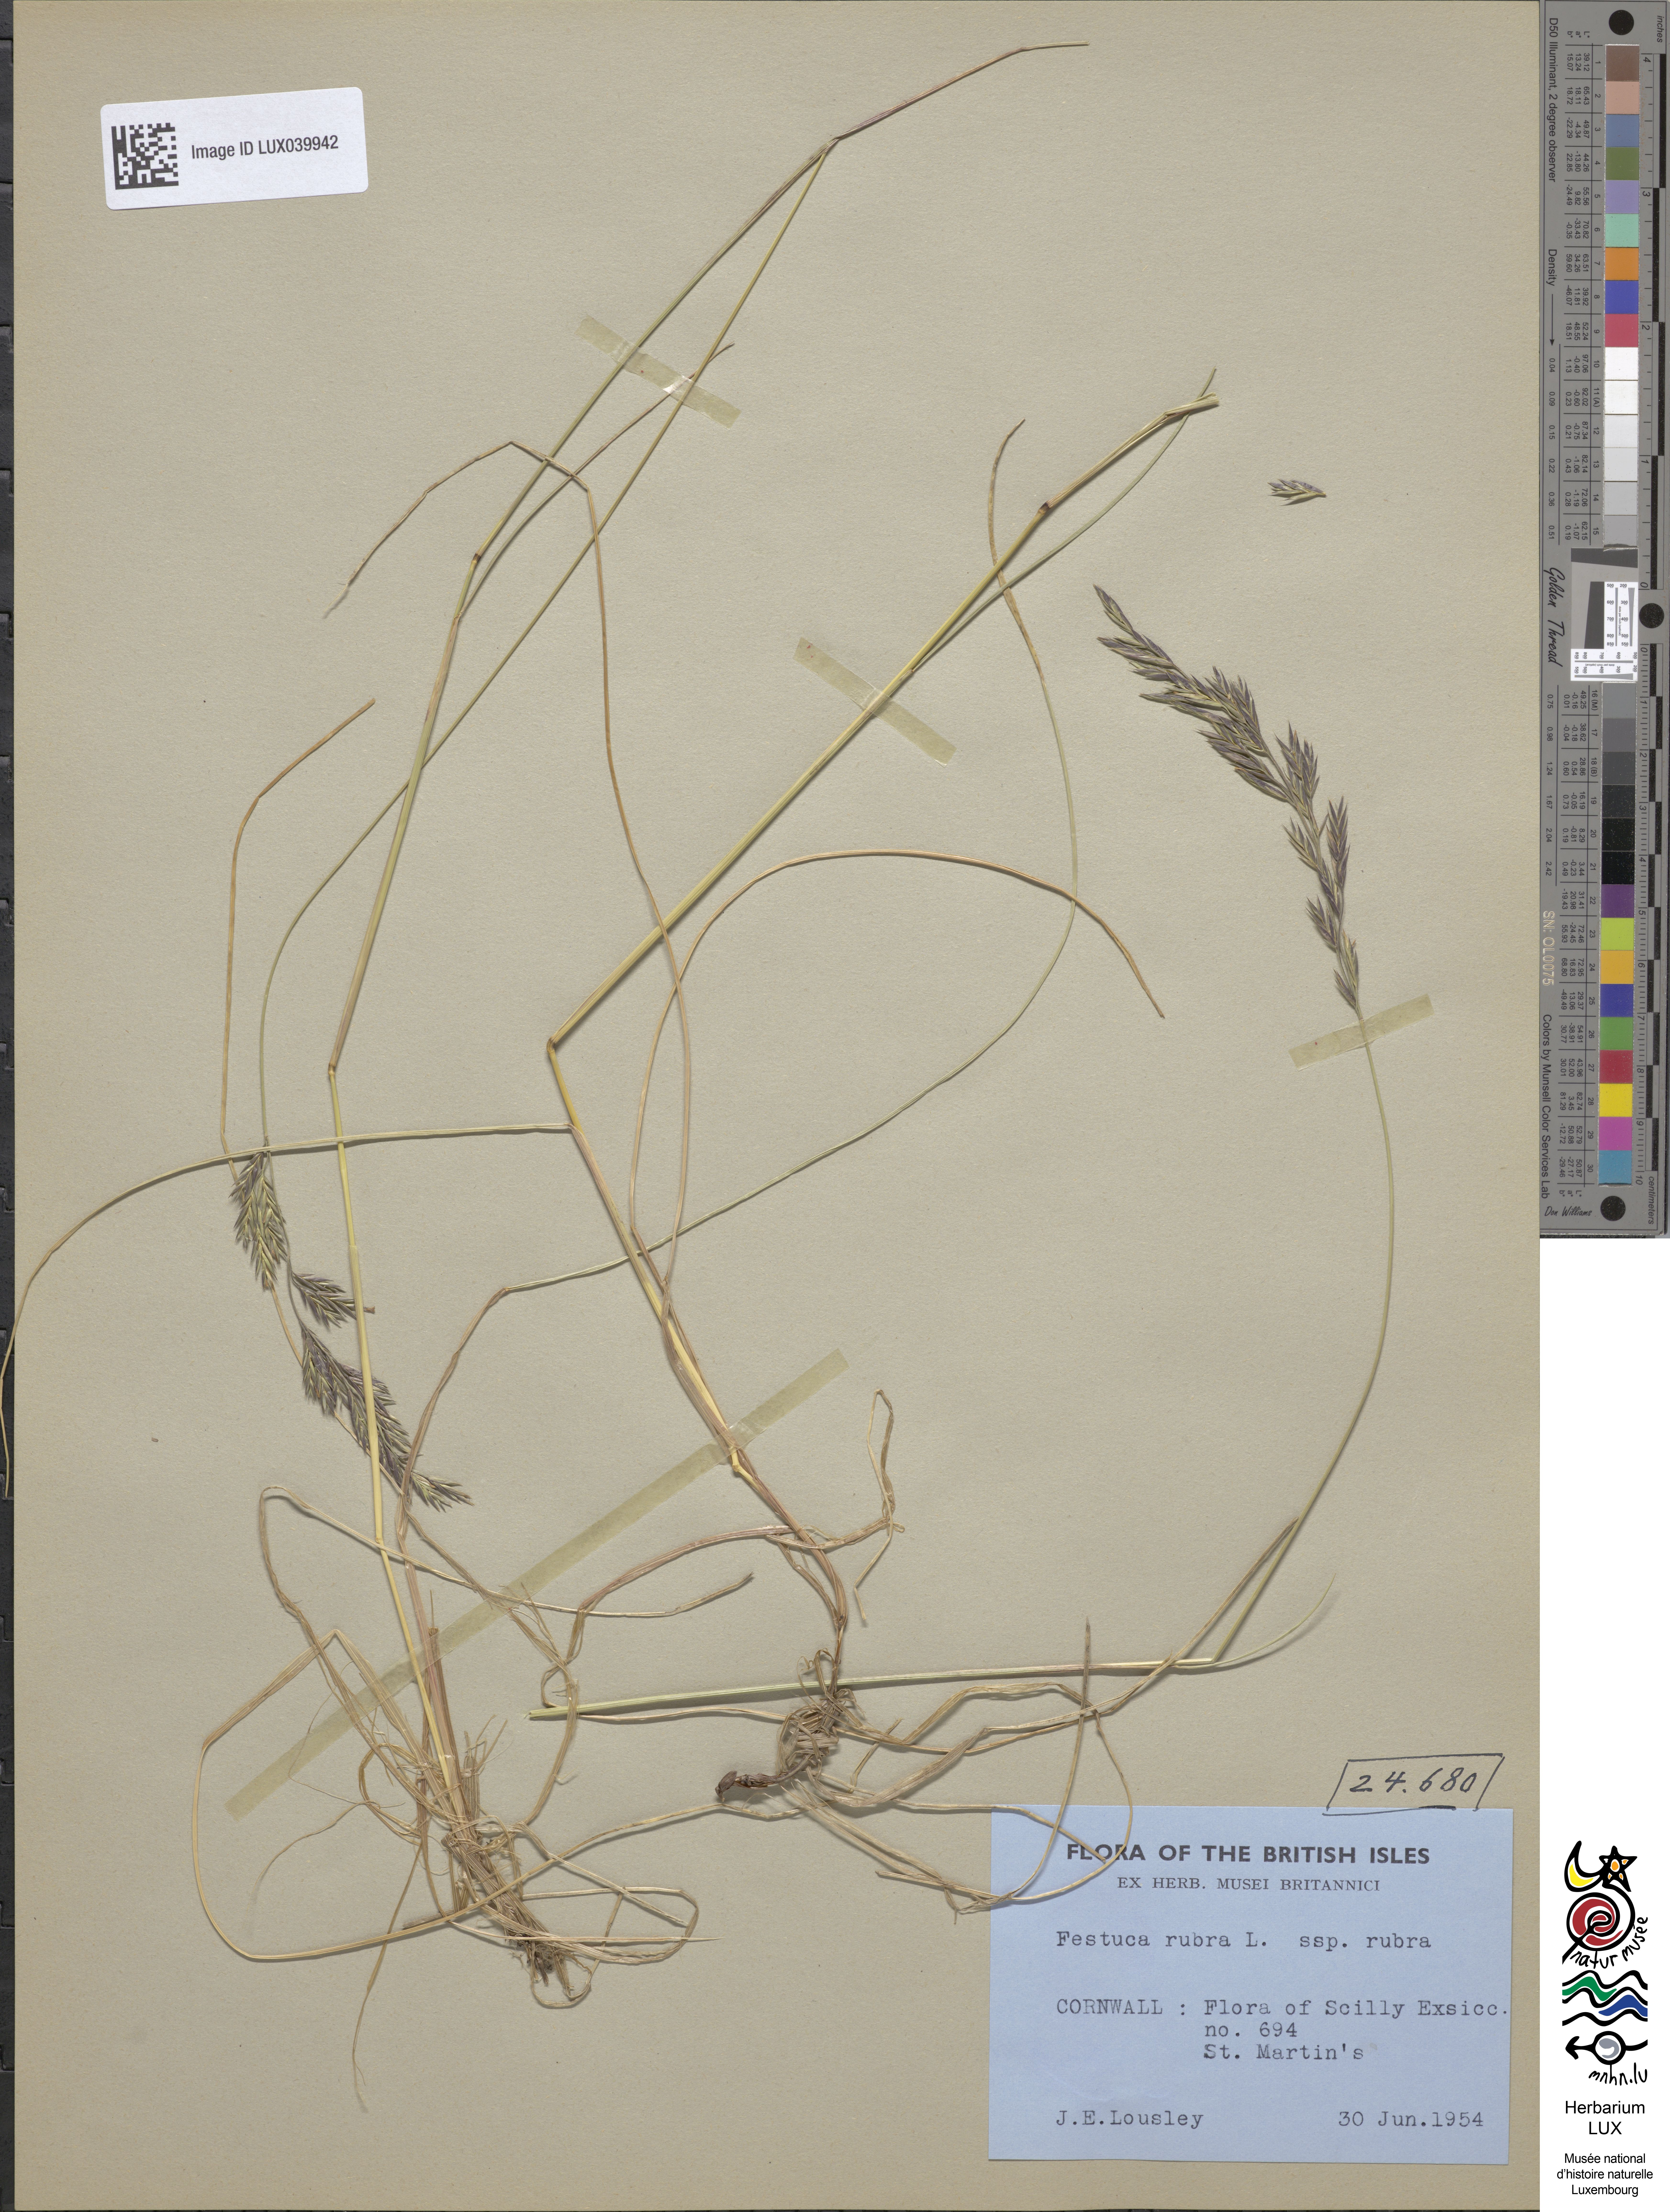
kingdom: Plantae
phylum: Tracheophyta
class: Liliopsida
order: Poales
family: Poaceae
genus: Festuca
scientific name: Festuca rubra
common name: Red fescue
